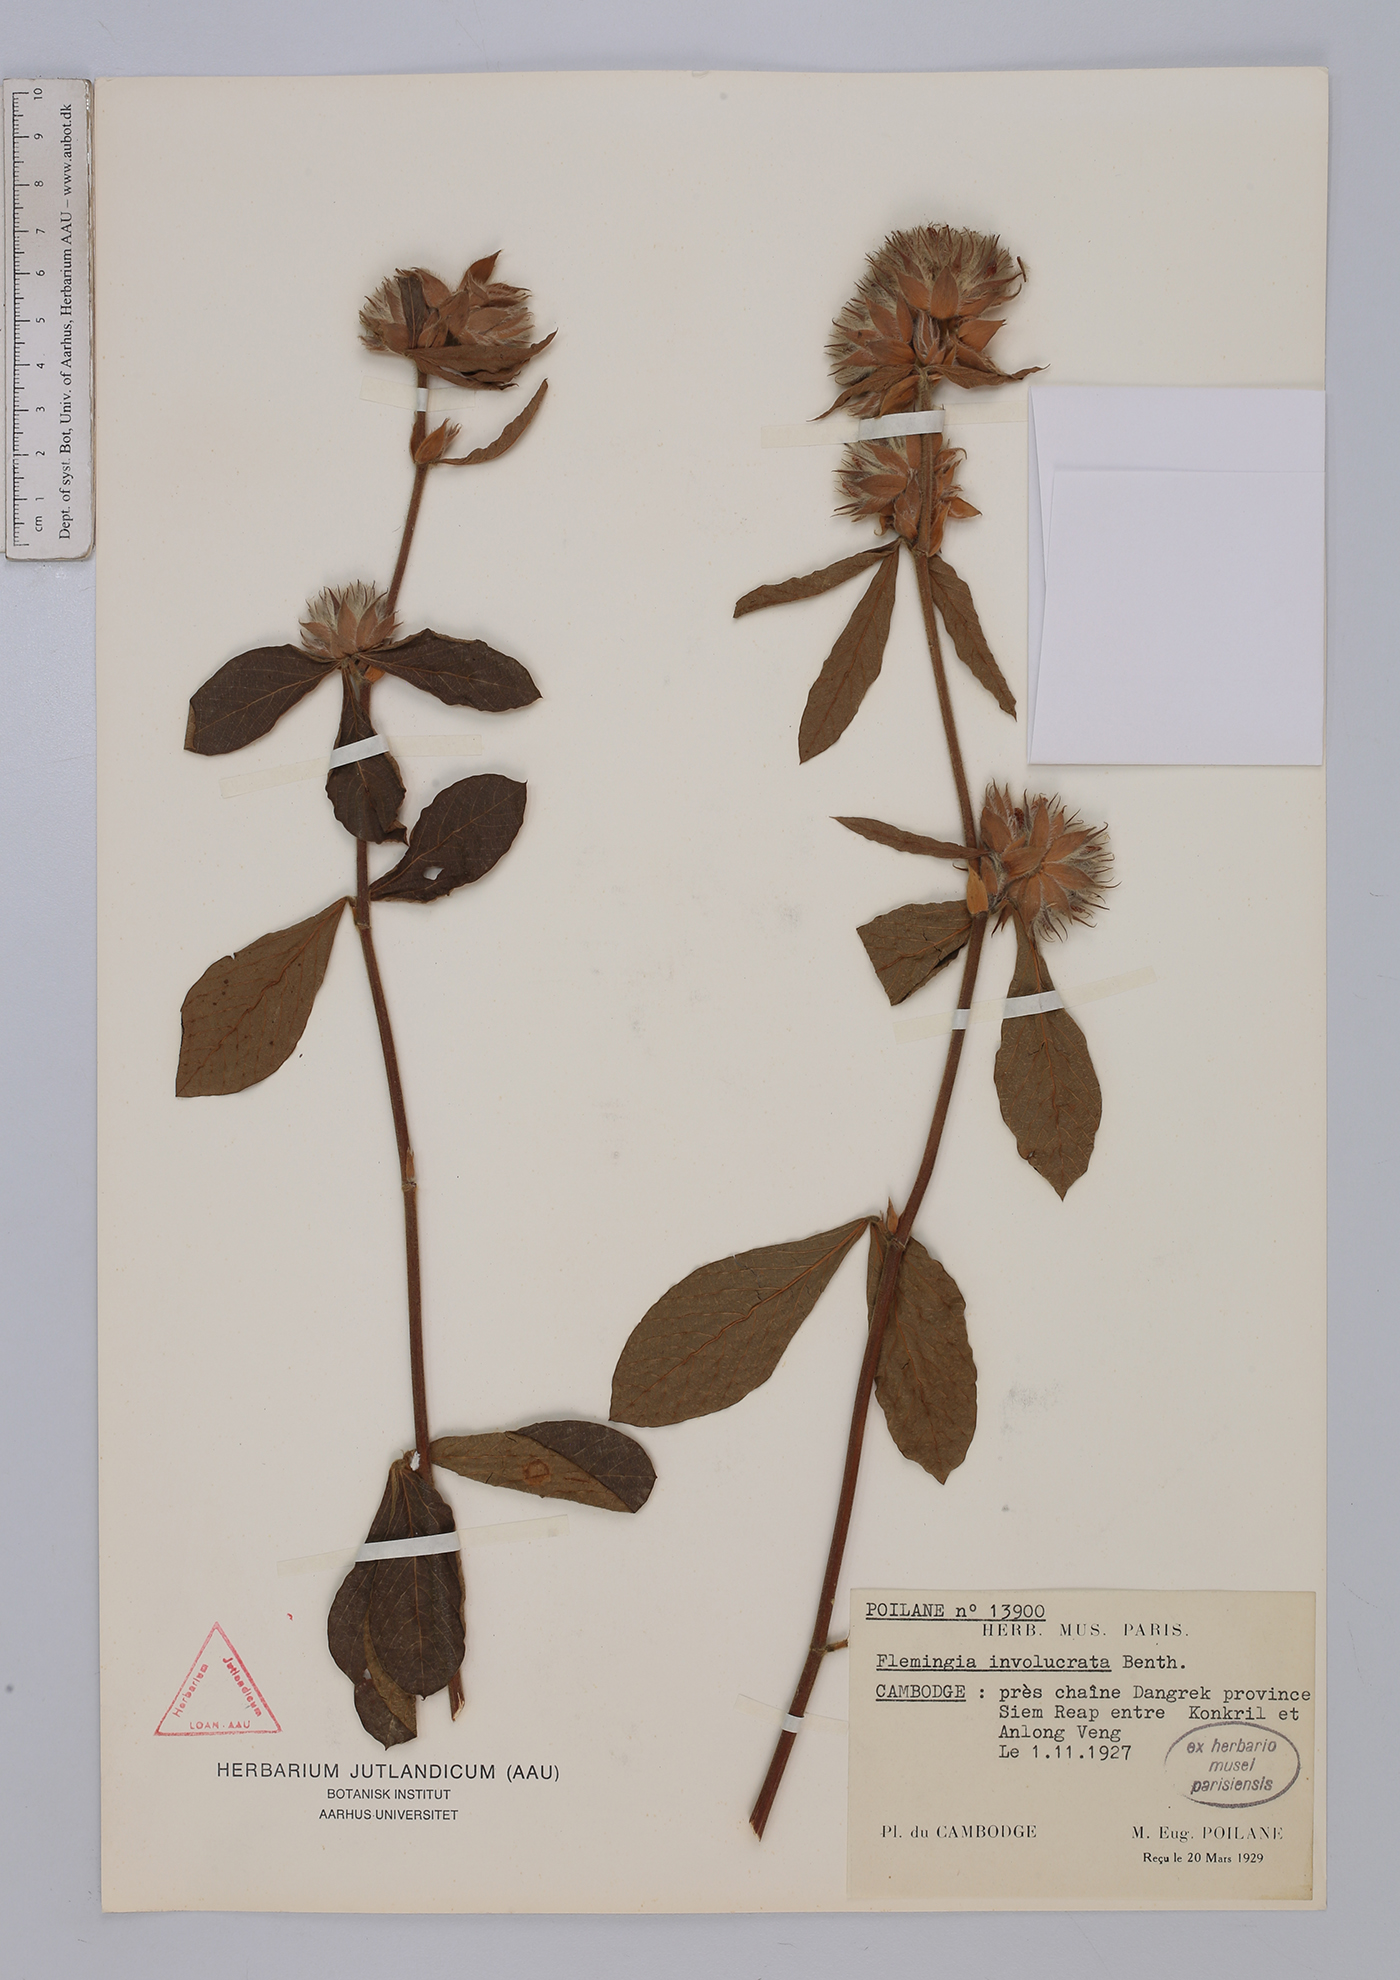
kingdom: Plantae
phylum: Tracheophyta
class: Magnoliopsida
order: Fabales
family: Fabaceae
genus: Flemingia
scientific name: Flemingia trifoliata
